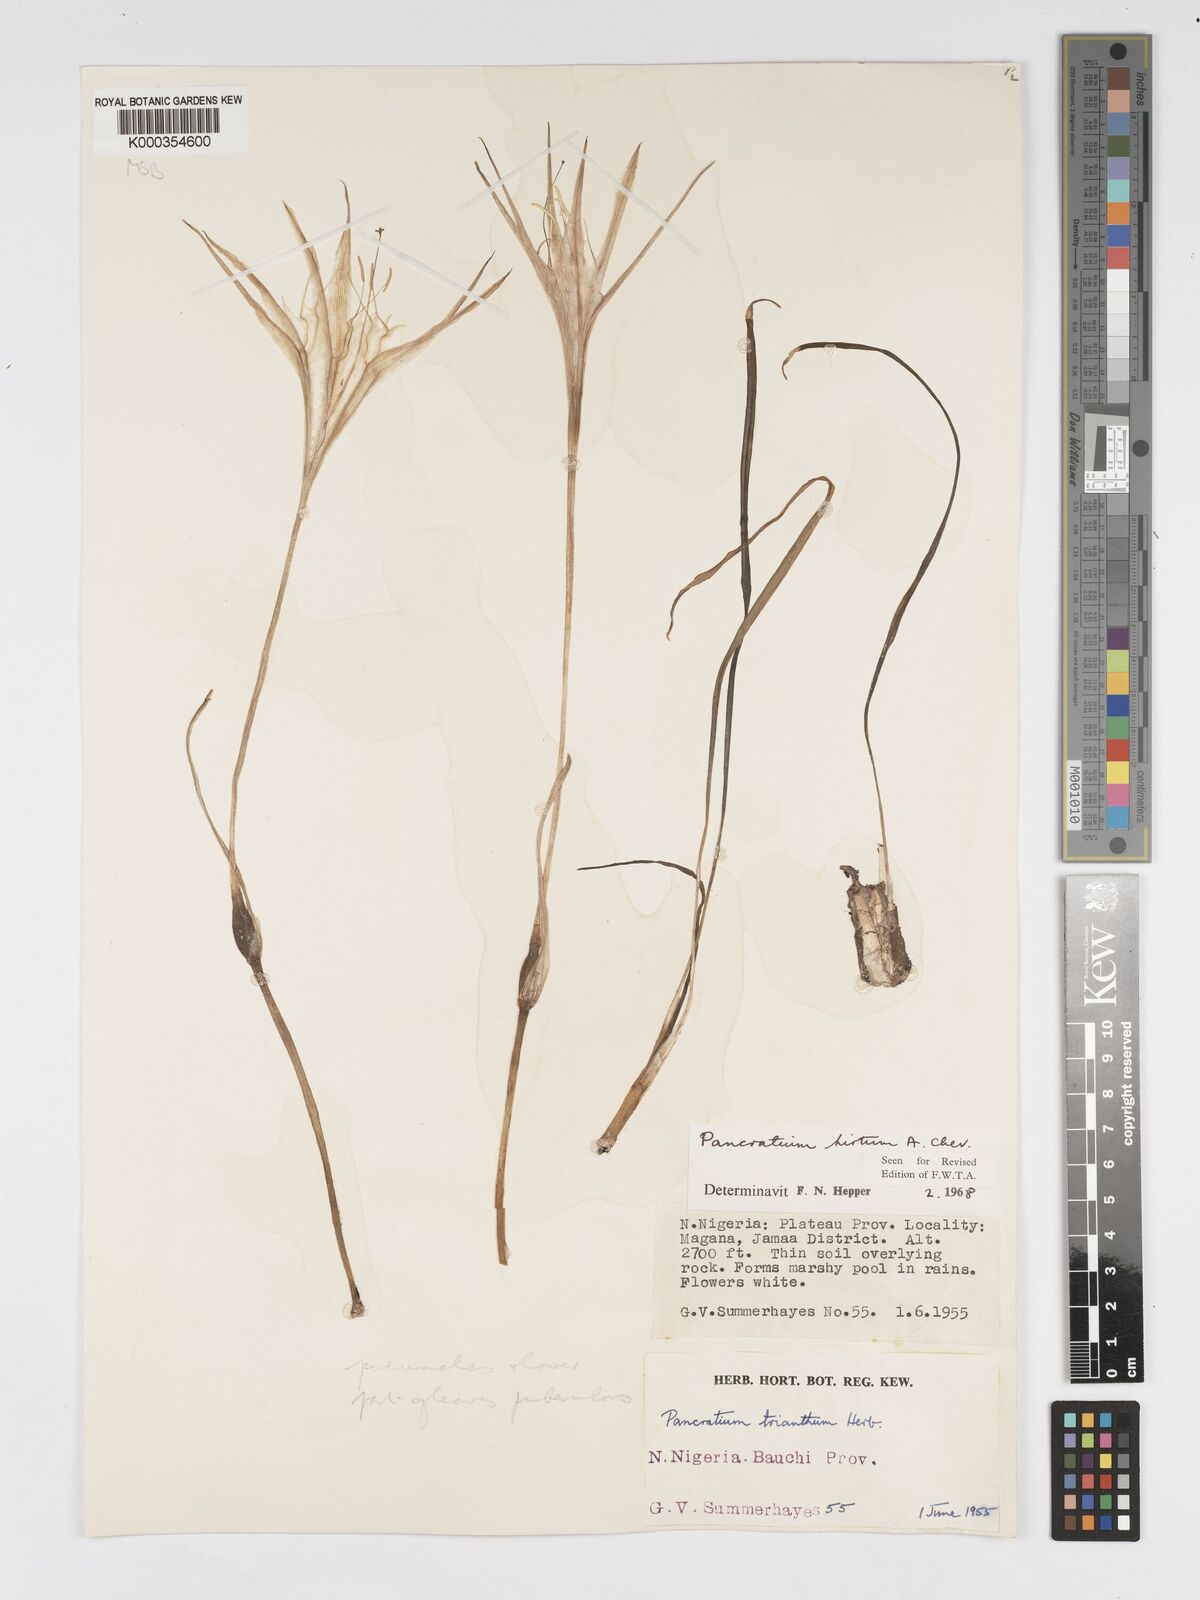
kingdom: Plantae
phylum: Tracheophyta
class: Liliopsida
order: Asparagales
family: Amaryllidaceae
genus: Pancratium
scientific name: Pancratium tenuifolium
